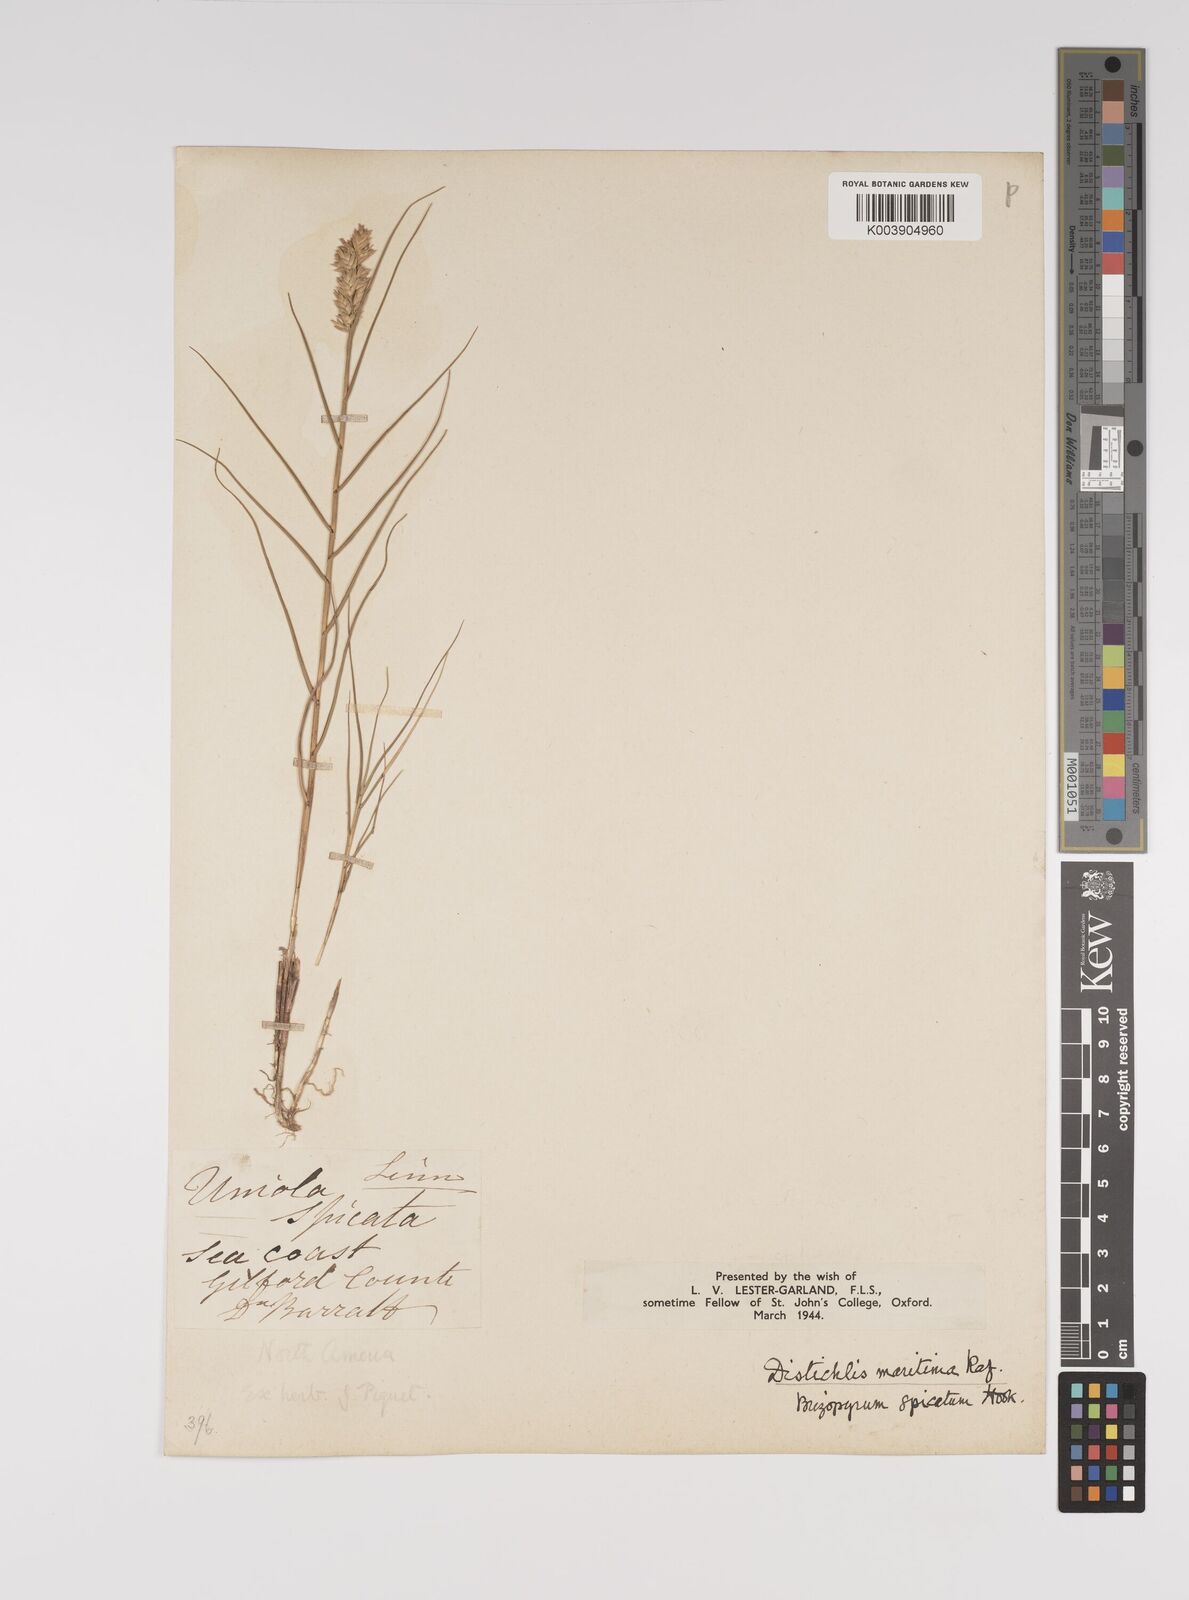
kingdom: Plantae
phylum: Tracheophyta
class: Liliopsida
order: Poales
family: Poaceae
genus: Distichlis
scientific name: Distichlis spicata
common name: Saltgrass
